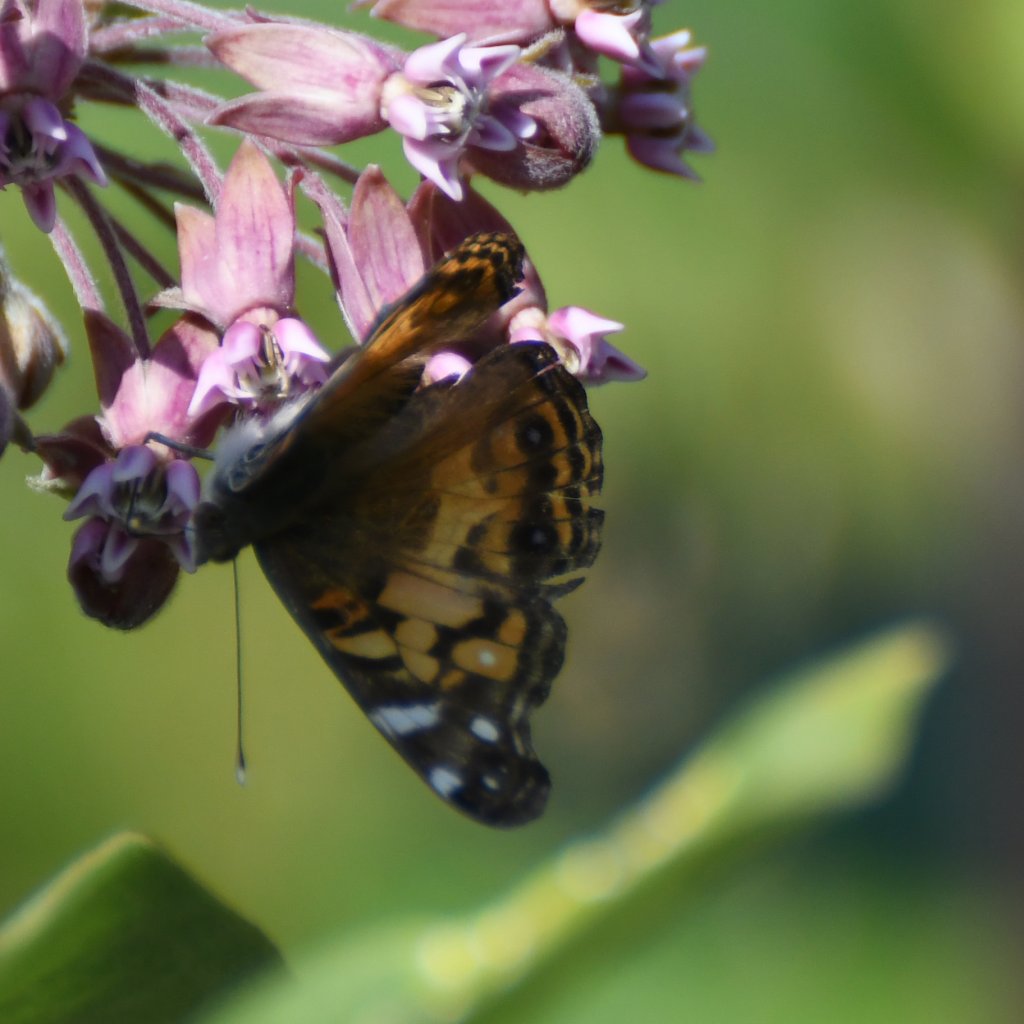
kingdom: Animalia
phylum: Arthropoda
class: Insecta
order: Lepidoptera
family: Nymphalidae
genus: Vanessa
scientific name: Vanessa virginiensis
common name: American Lady
